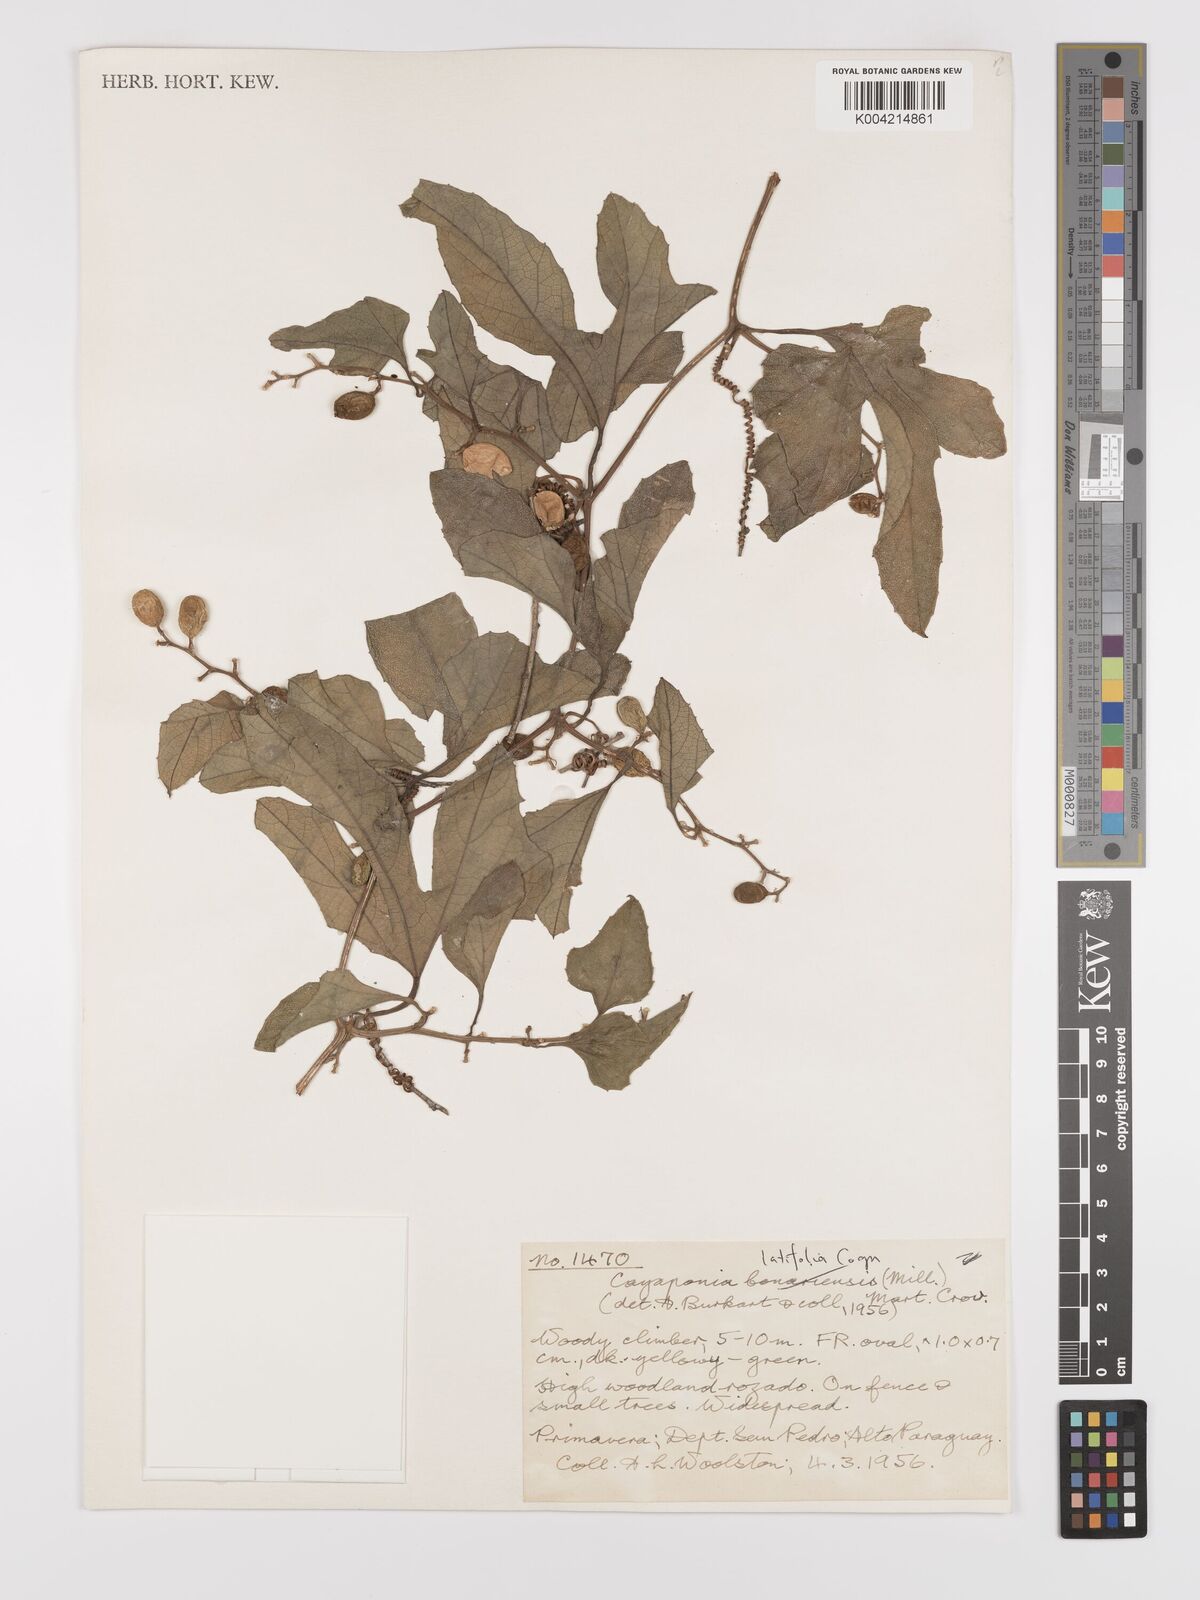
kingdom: Plantae
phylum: Tracheophyta
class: Magnoliopsida
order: Cucurbitales
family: Cucurbitaceae
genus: Cayaponia
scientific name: Cayaponia citrullifolia
